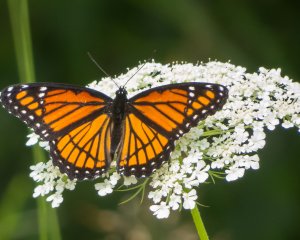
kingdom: Animalia
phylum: Arthropoda
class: Insecta
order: Lepidoptera
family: Nymphalidae
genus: Limenitis
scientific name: Limenitis archippus
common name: Viceroy
